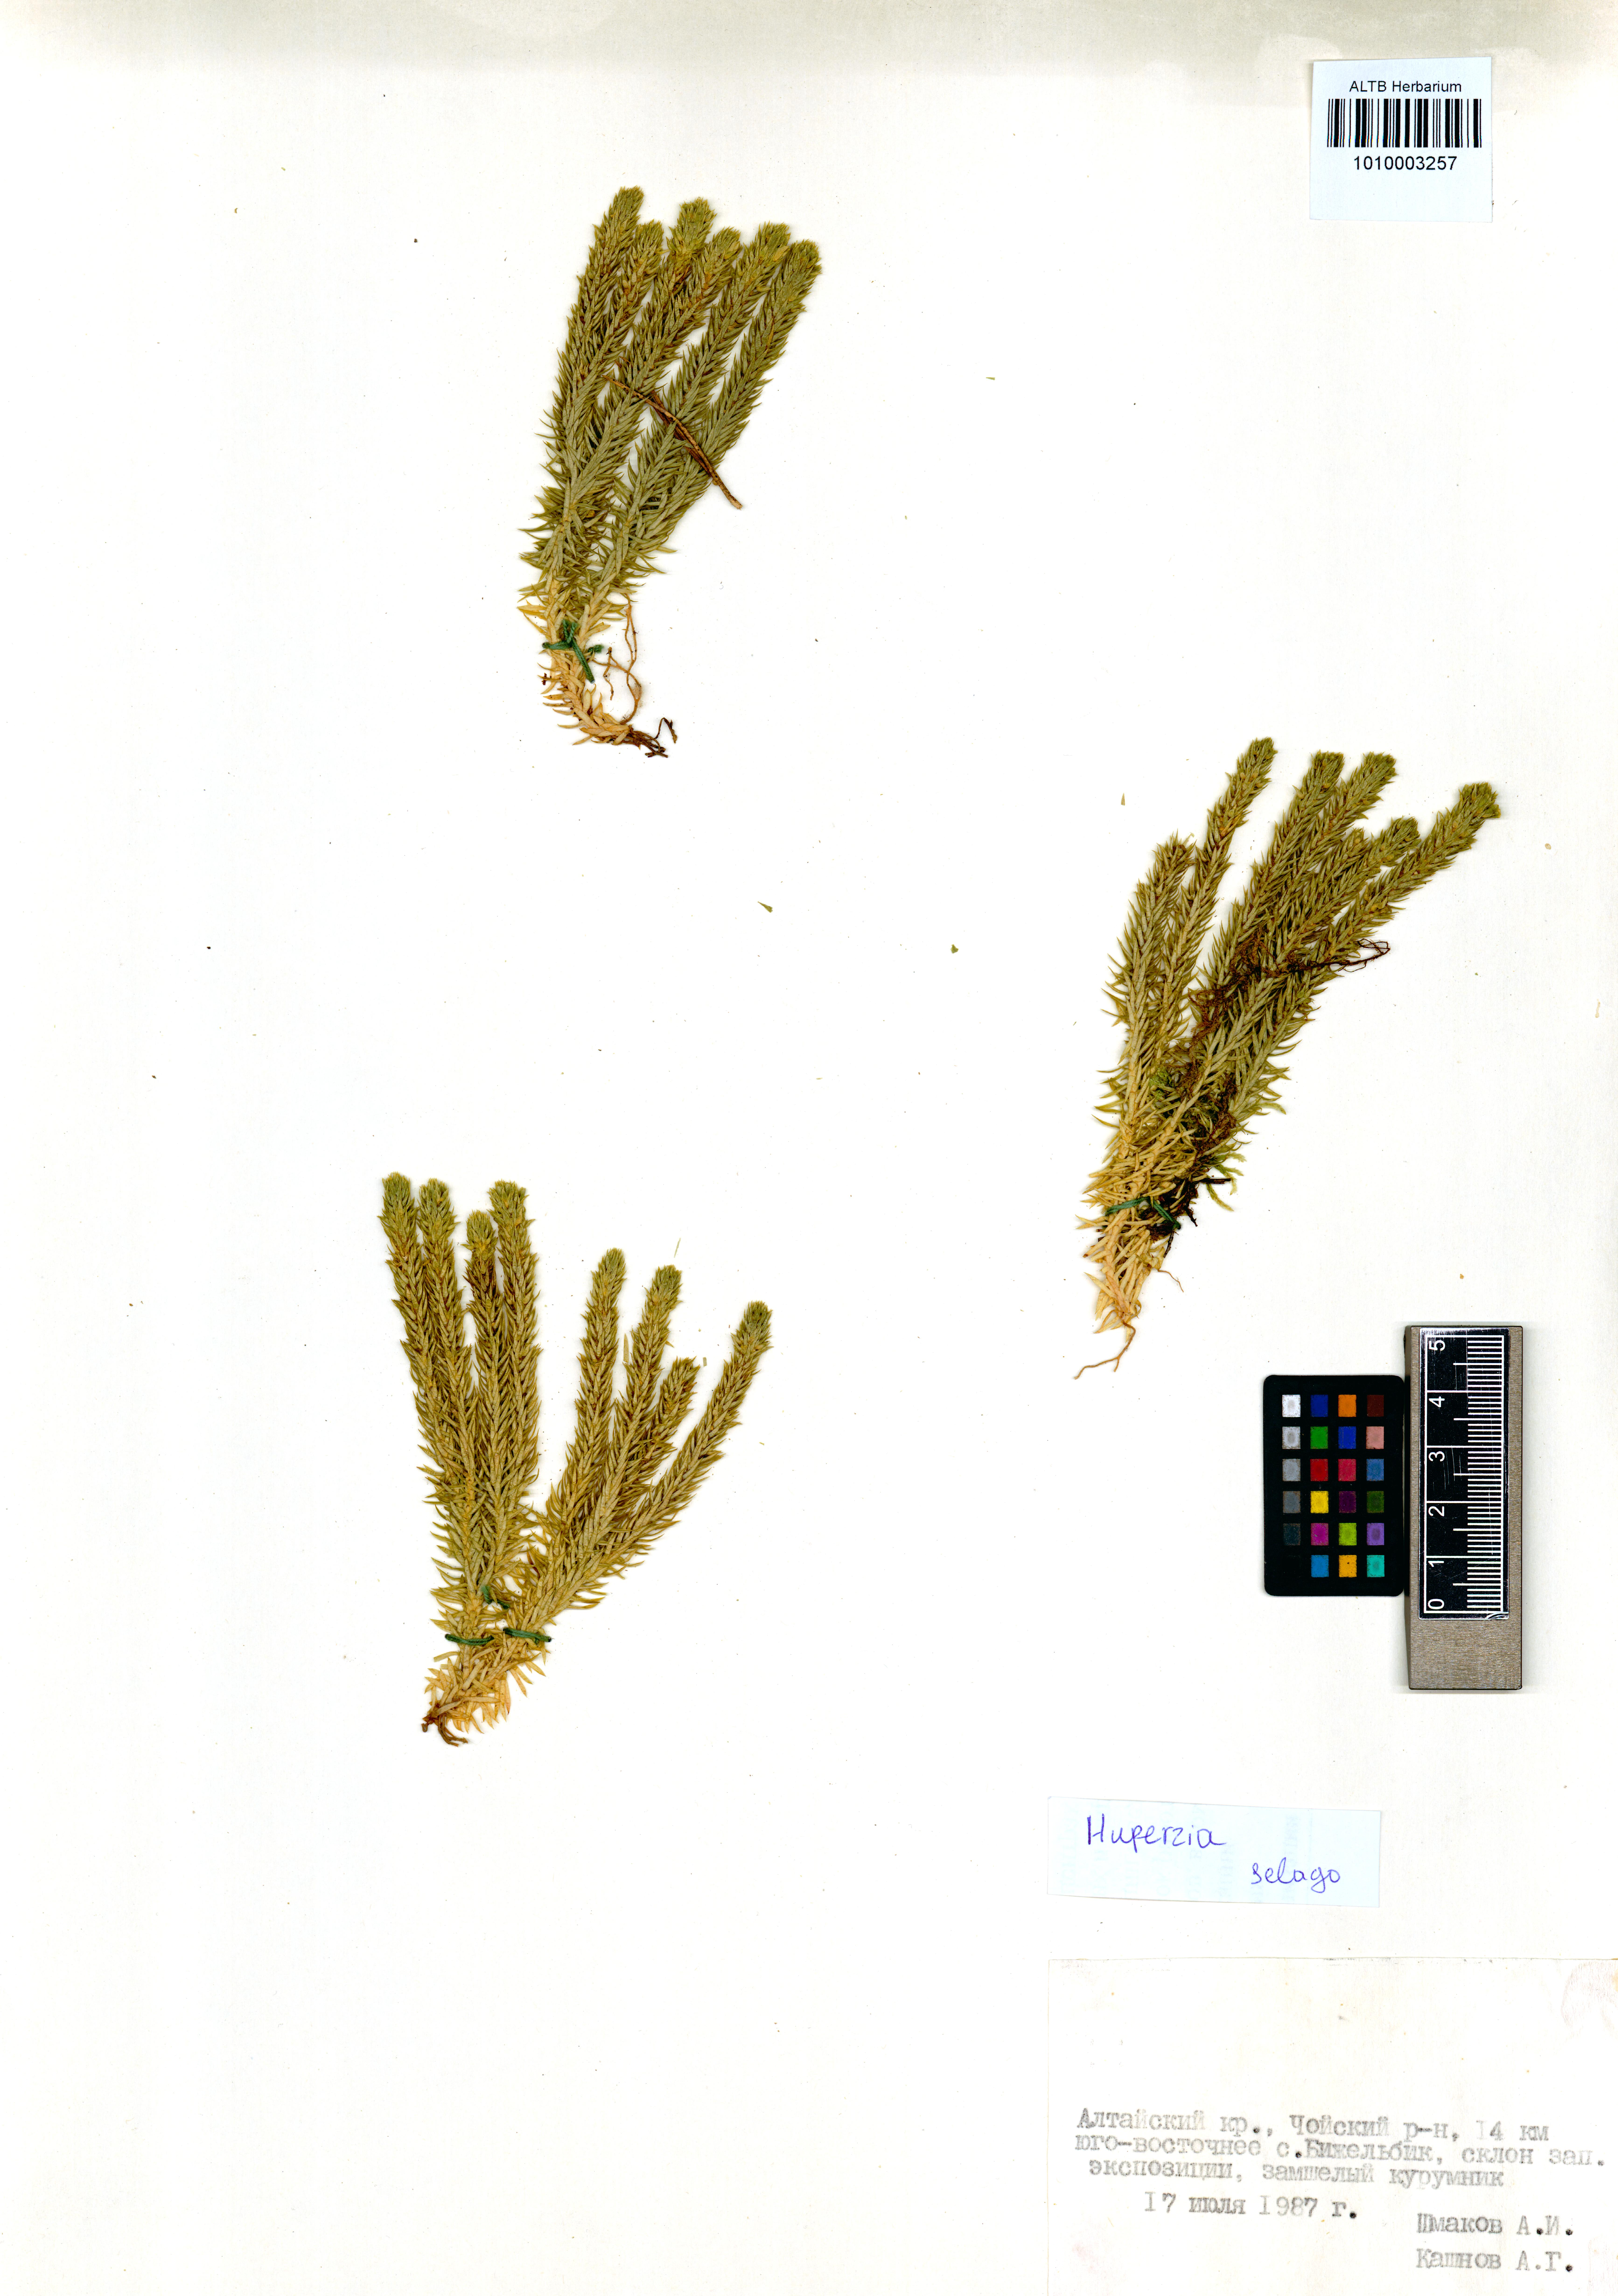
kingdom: Plantae
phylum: Tracheophyta
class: Lycopodiopsida
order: Lycopodiales
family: Lycopodiaceae
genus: Huperzia
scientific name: Huperzia selago
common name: Northern firmoss
